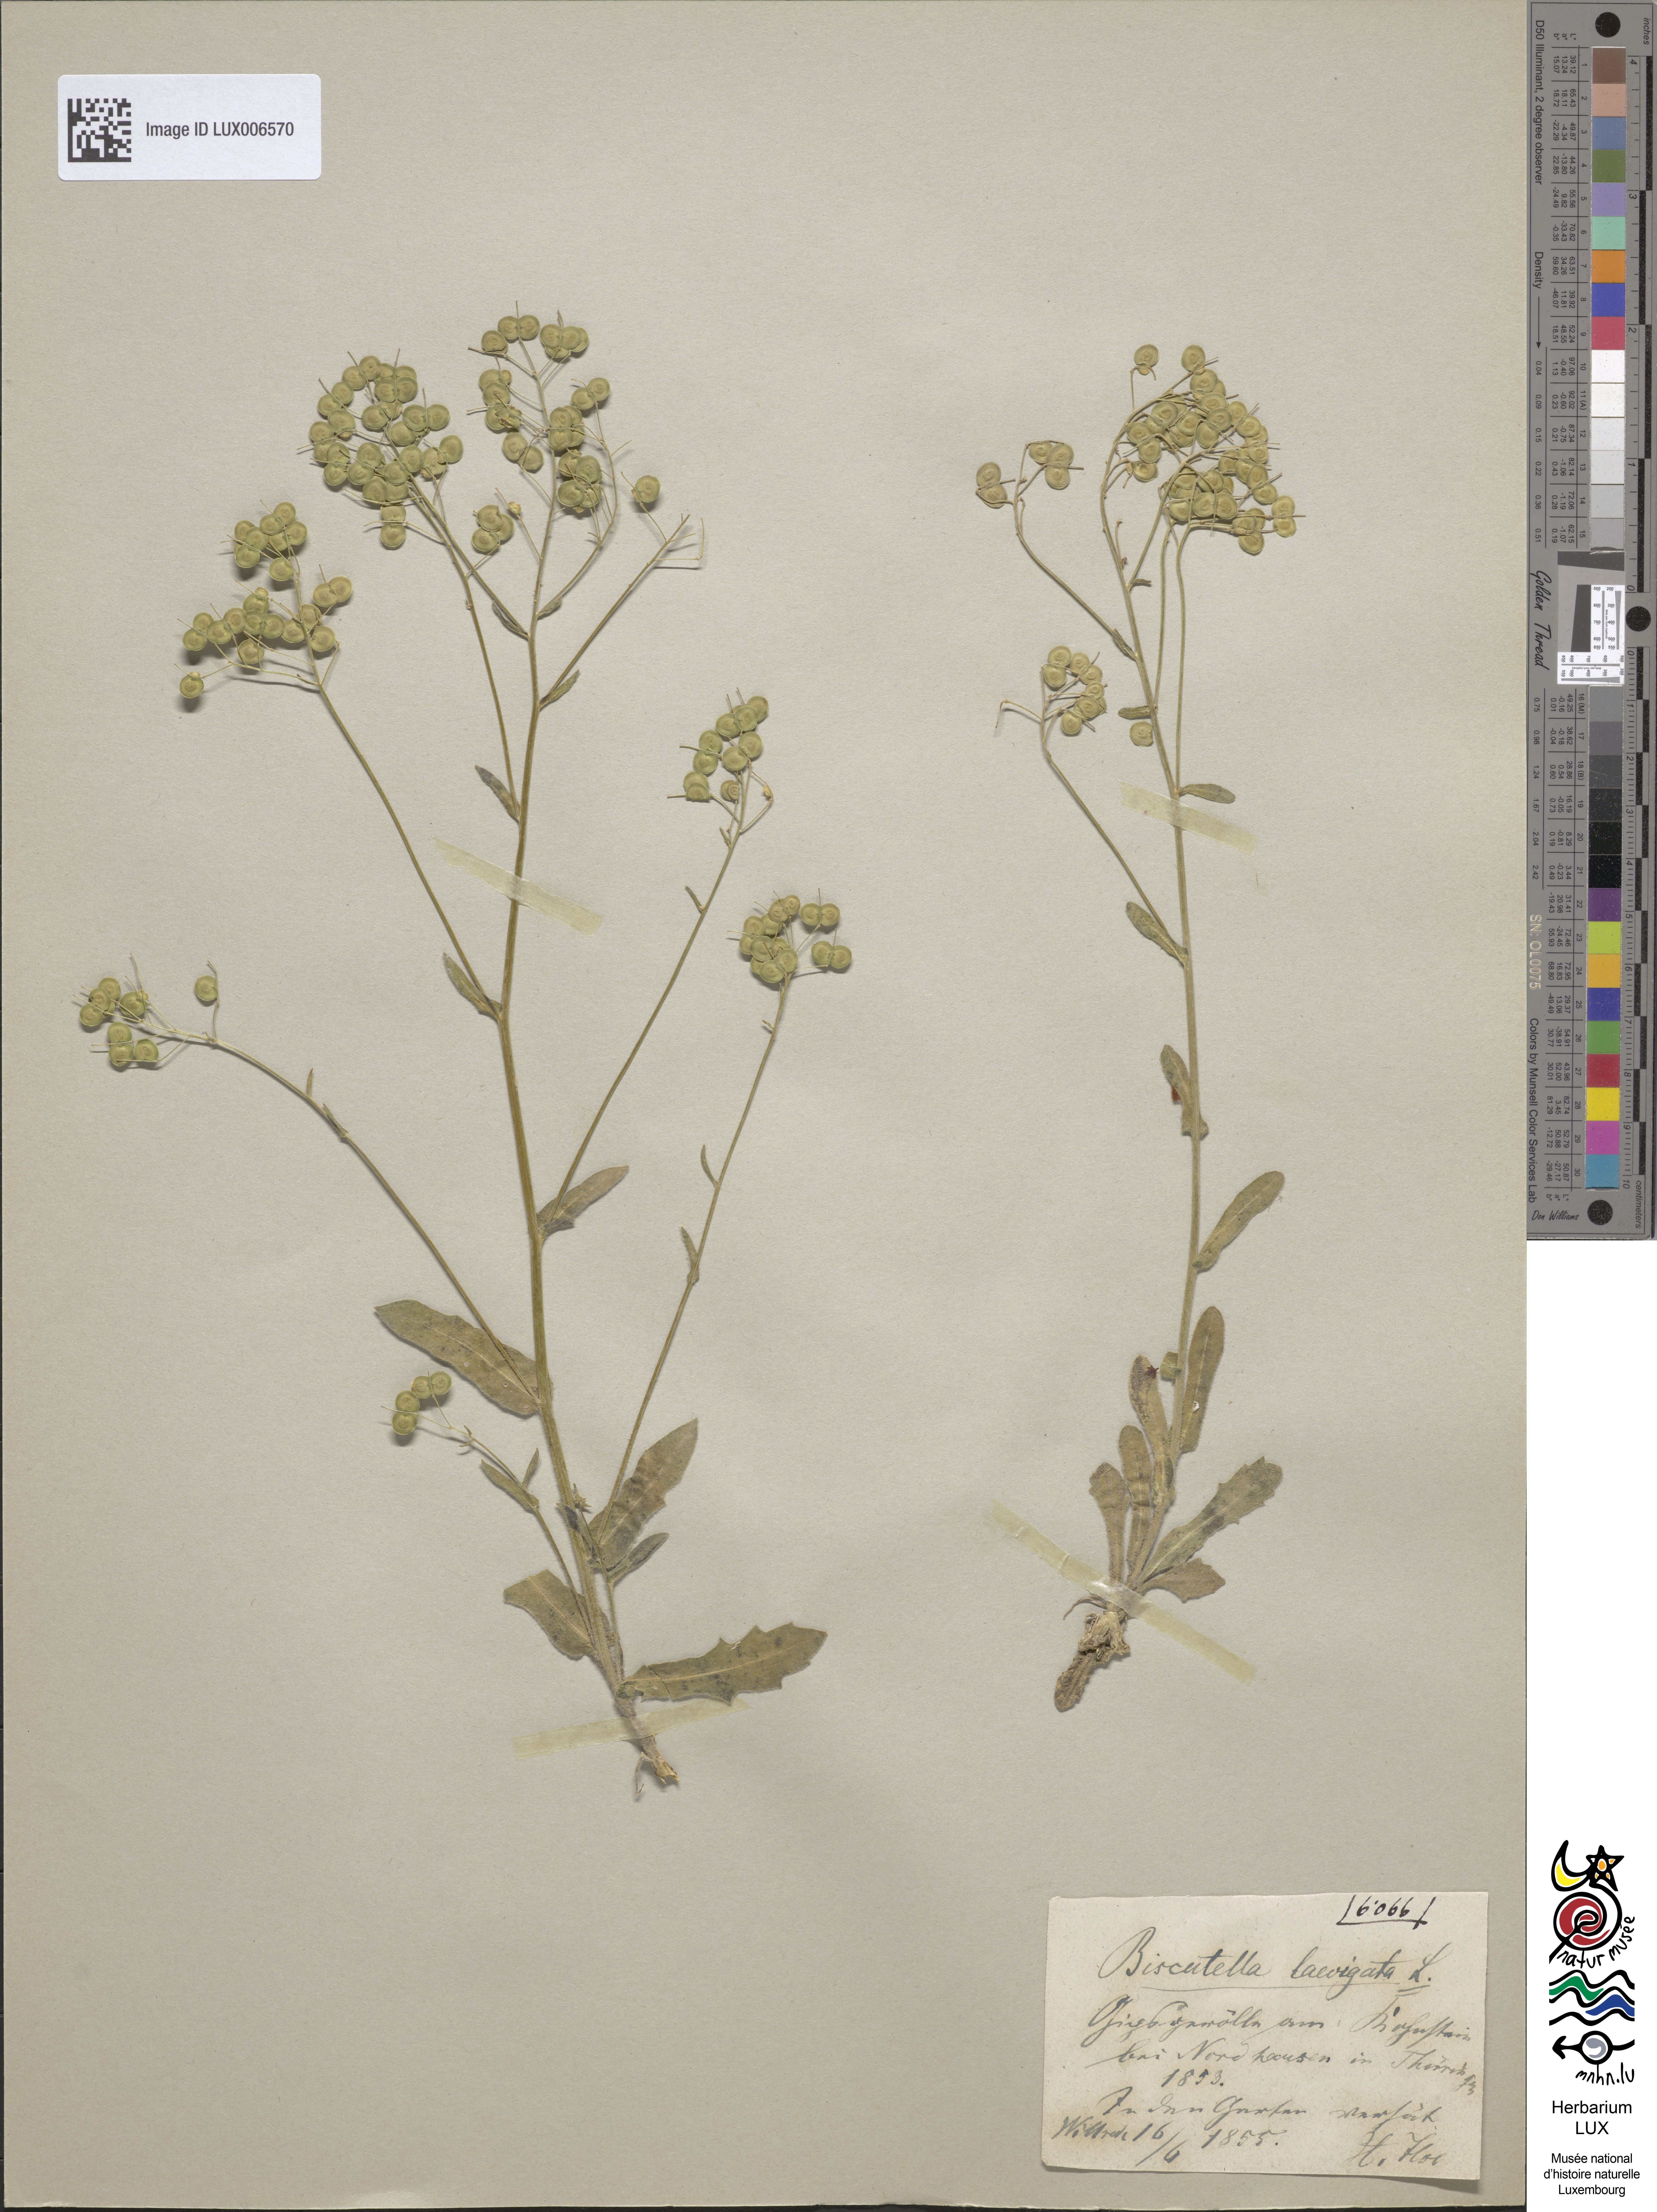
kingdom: Plantae
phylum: Tracheophyta
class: Magnoliopsida
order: Brassicales
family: Brassicaceae
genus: Biscutella
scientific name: Biscutella laevigata
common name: Buckler mustard
